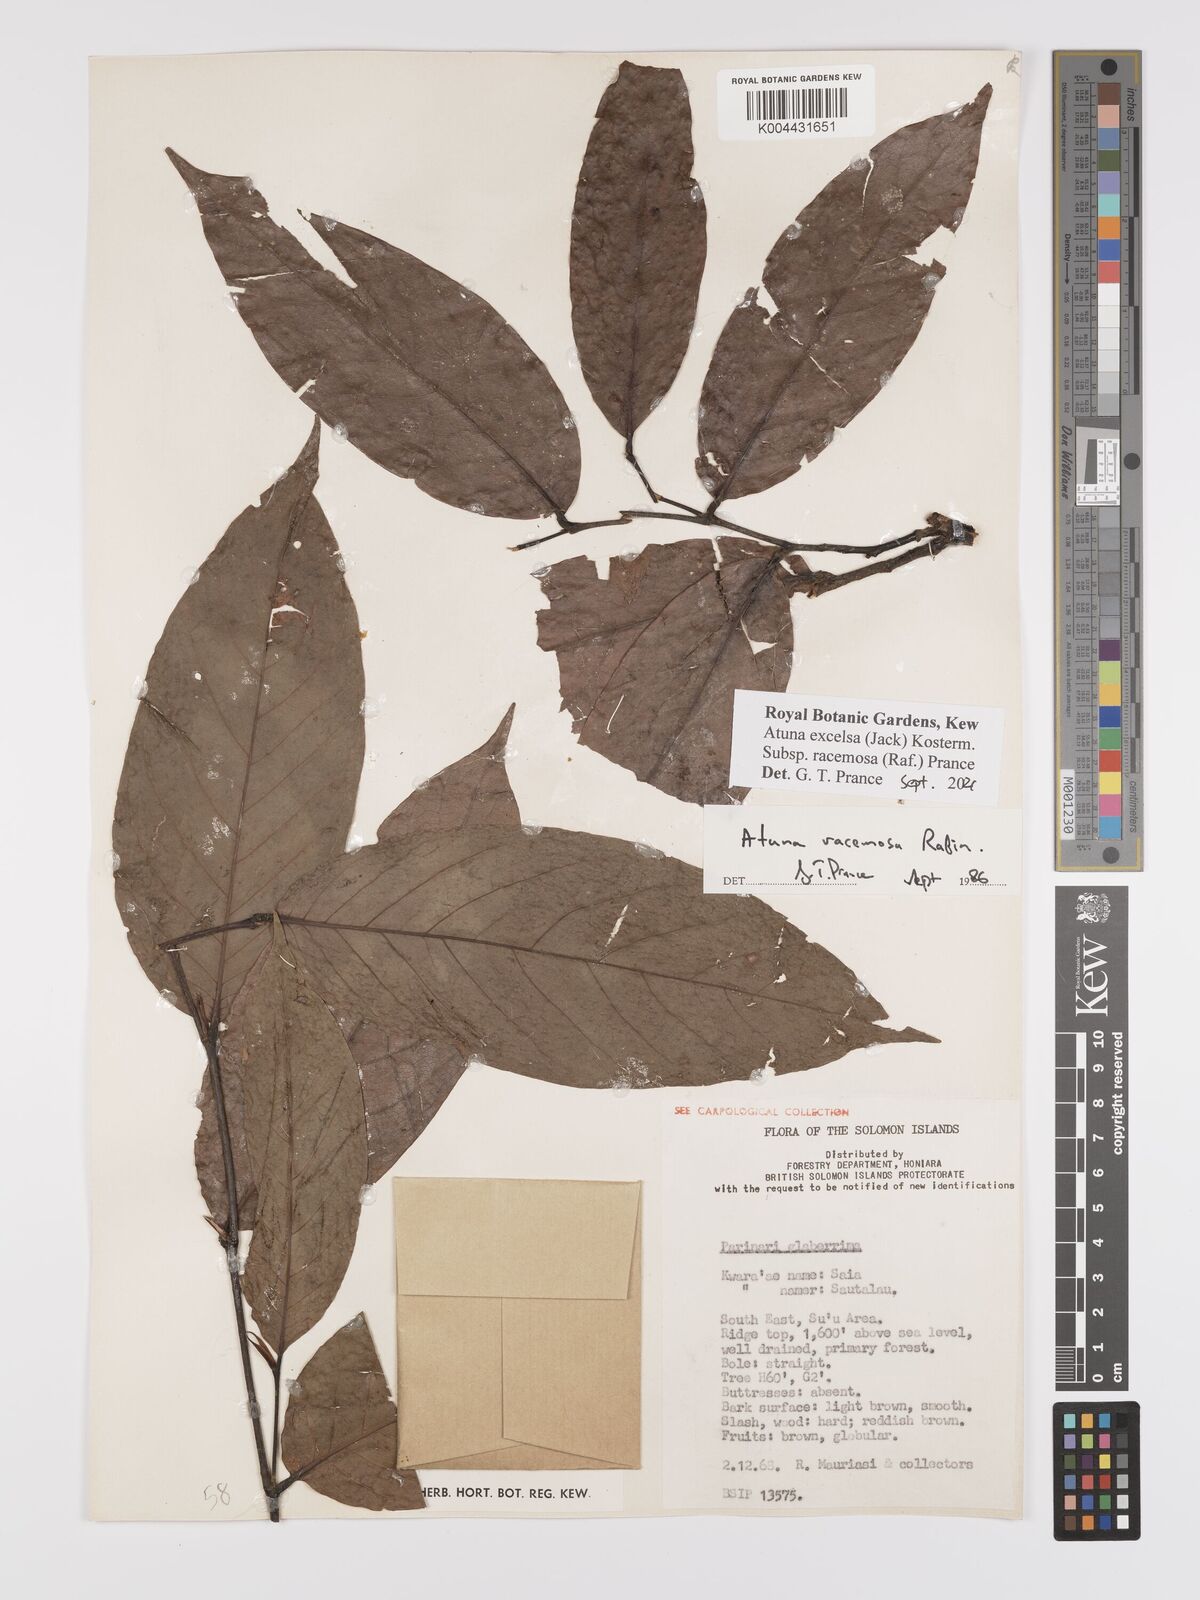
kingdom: Plantae
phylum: Tracheophyta
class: Magnoliopsida
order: Malpighiales
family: Chrysobalanaceae
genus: Atuna
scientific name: Atuna excelsa
